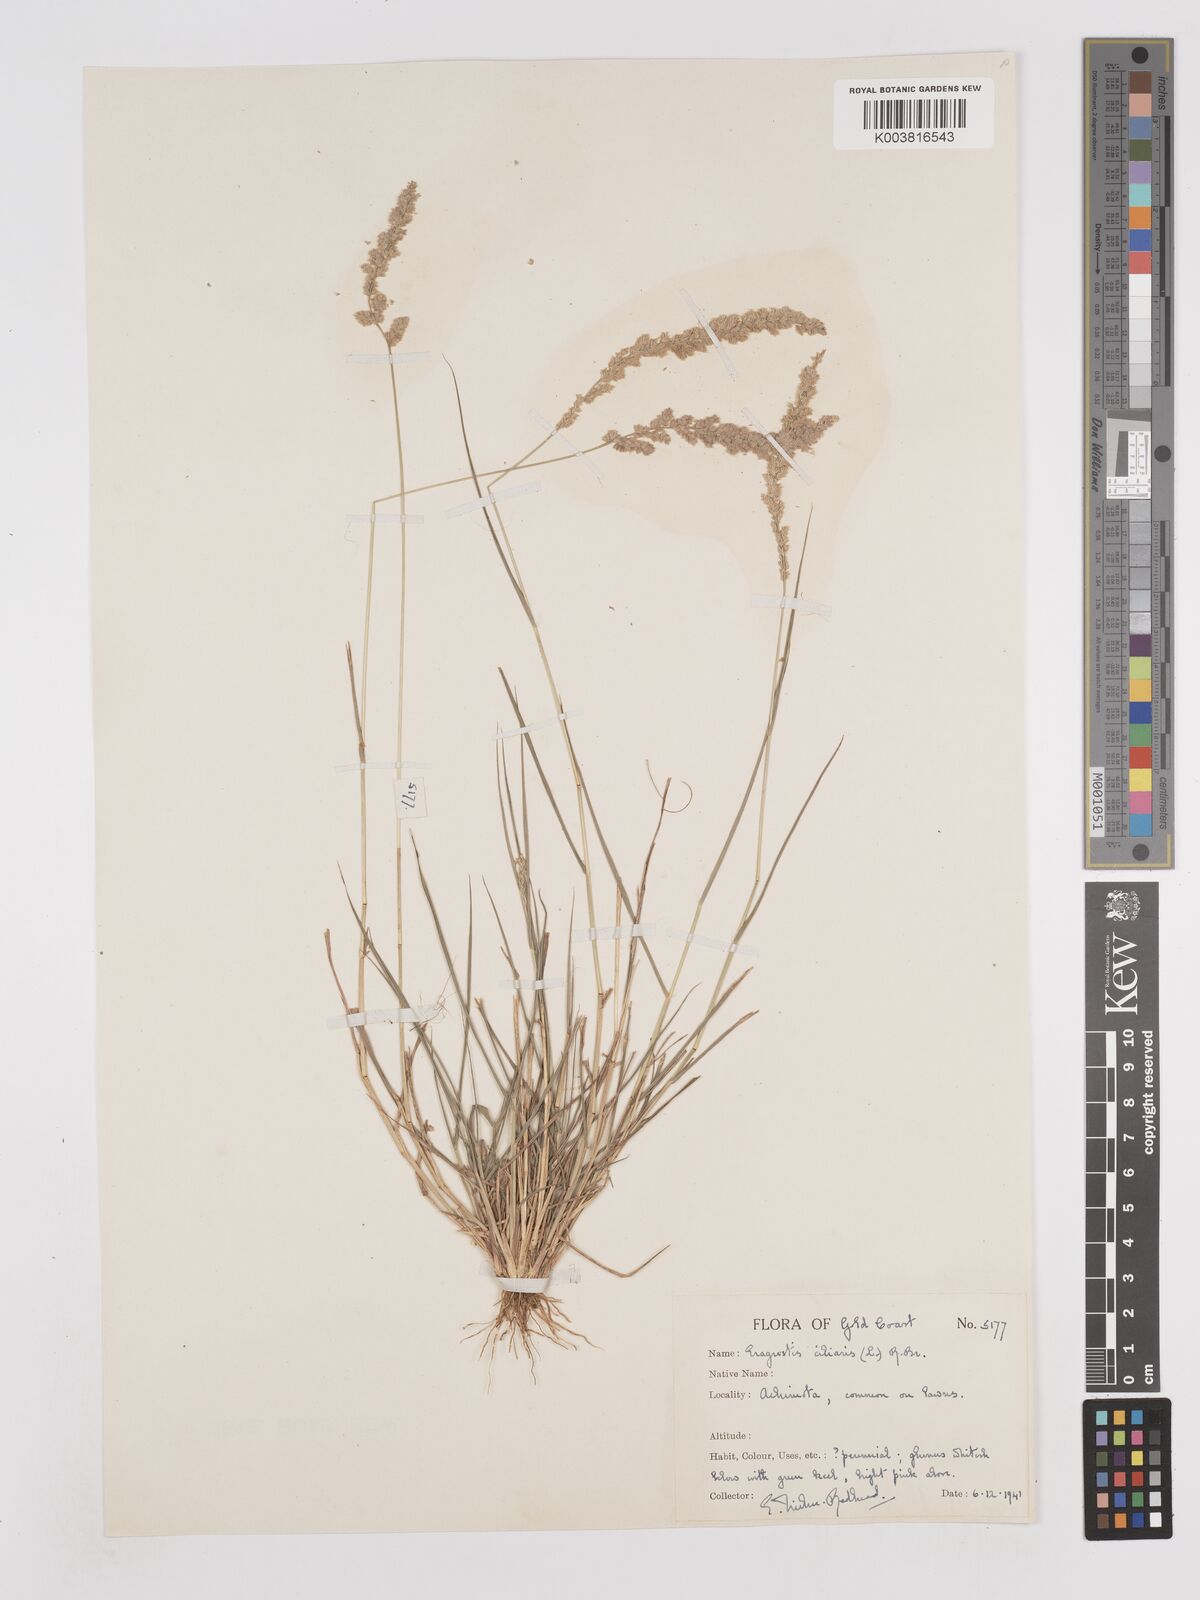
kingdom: Plantae
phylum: Tracheophyta
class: Liliopsida
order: Poales
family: Poaceae
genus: Eragrostis
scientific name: Eragrostis ciliaris
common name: Gophertail lovegrass
